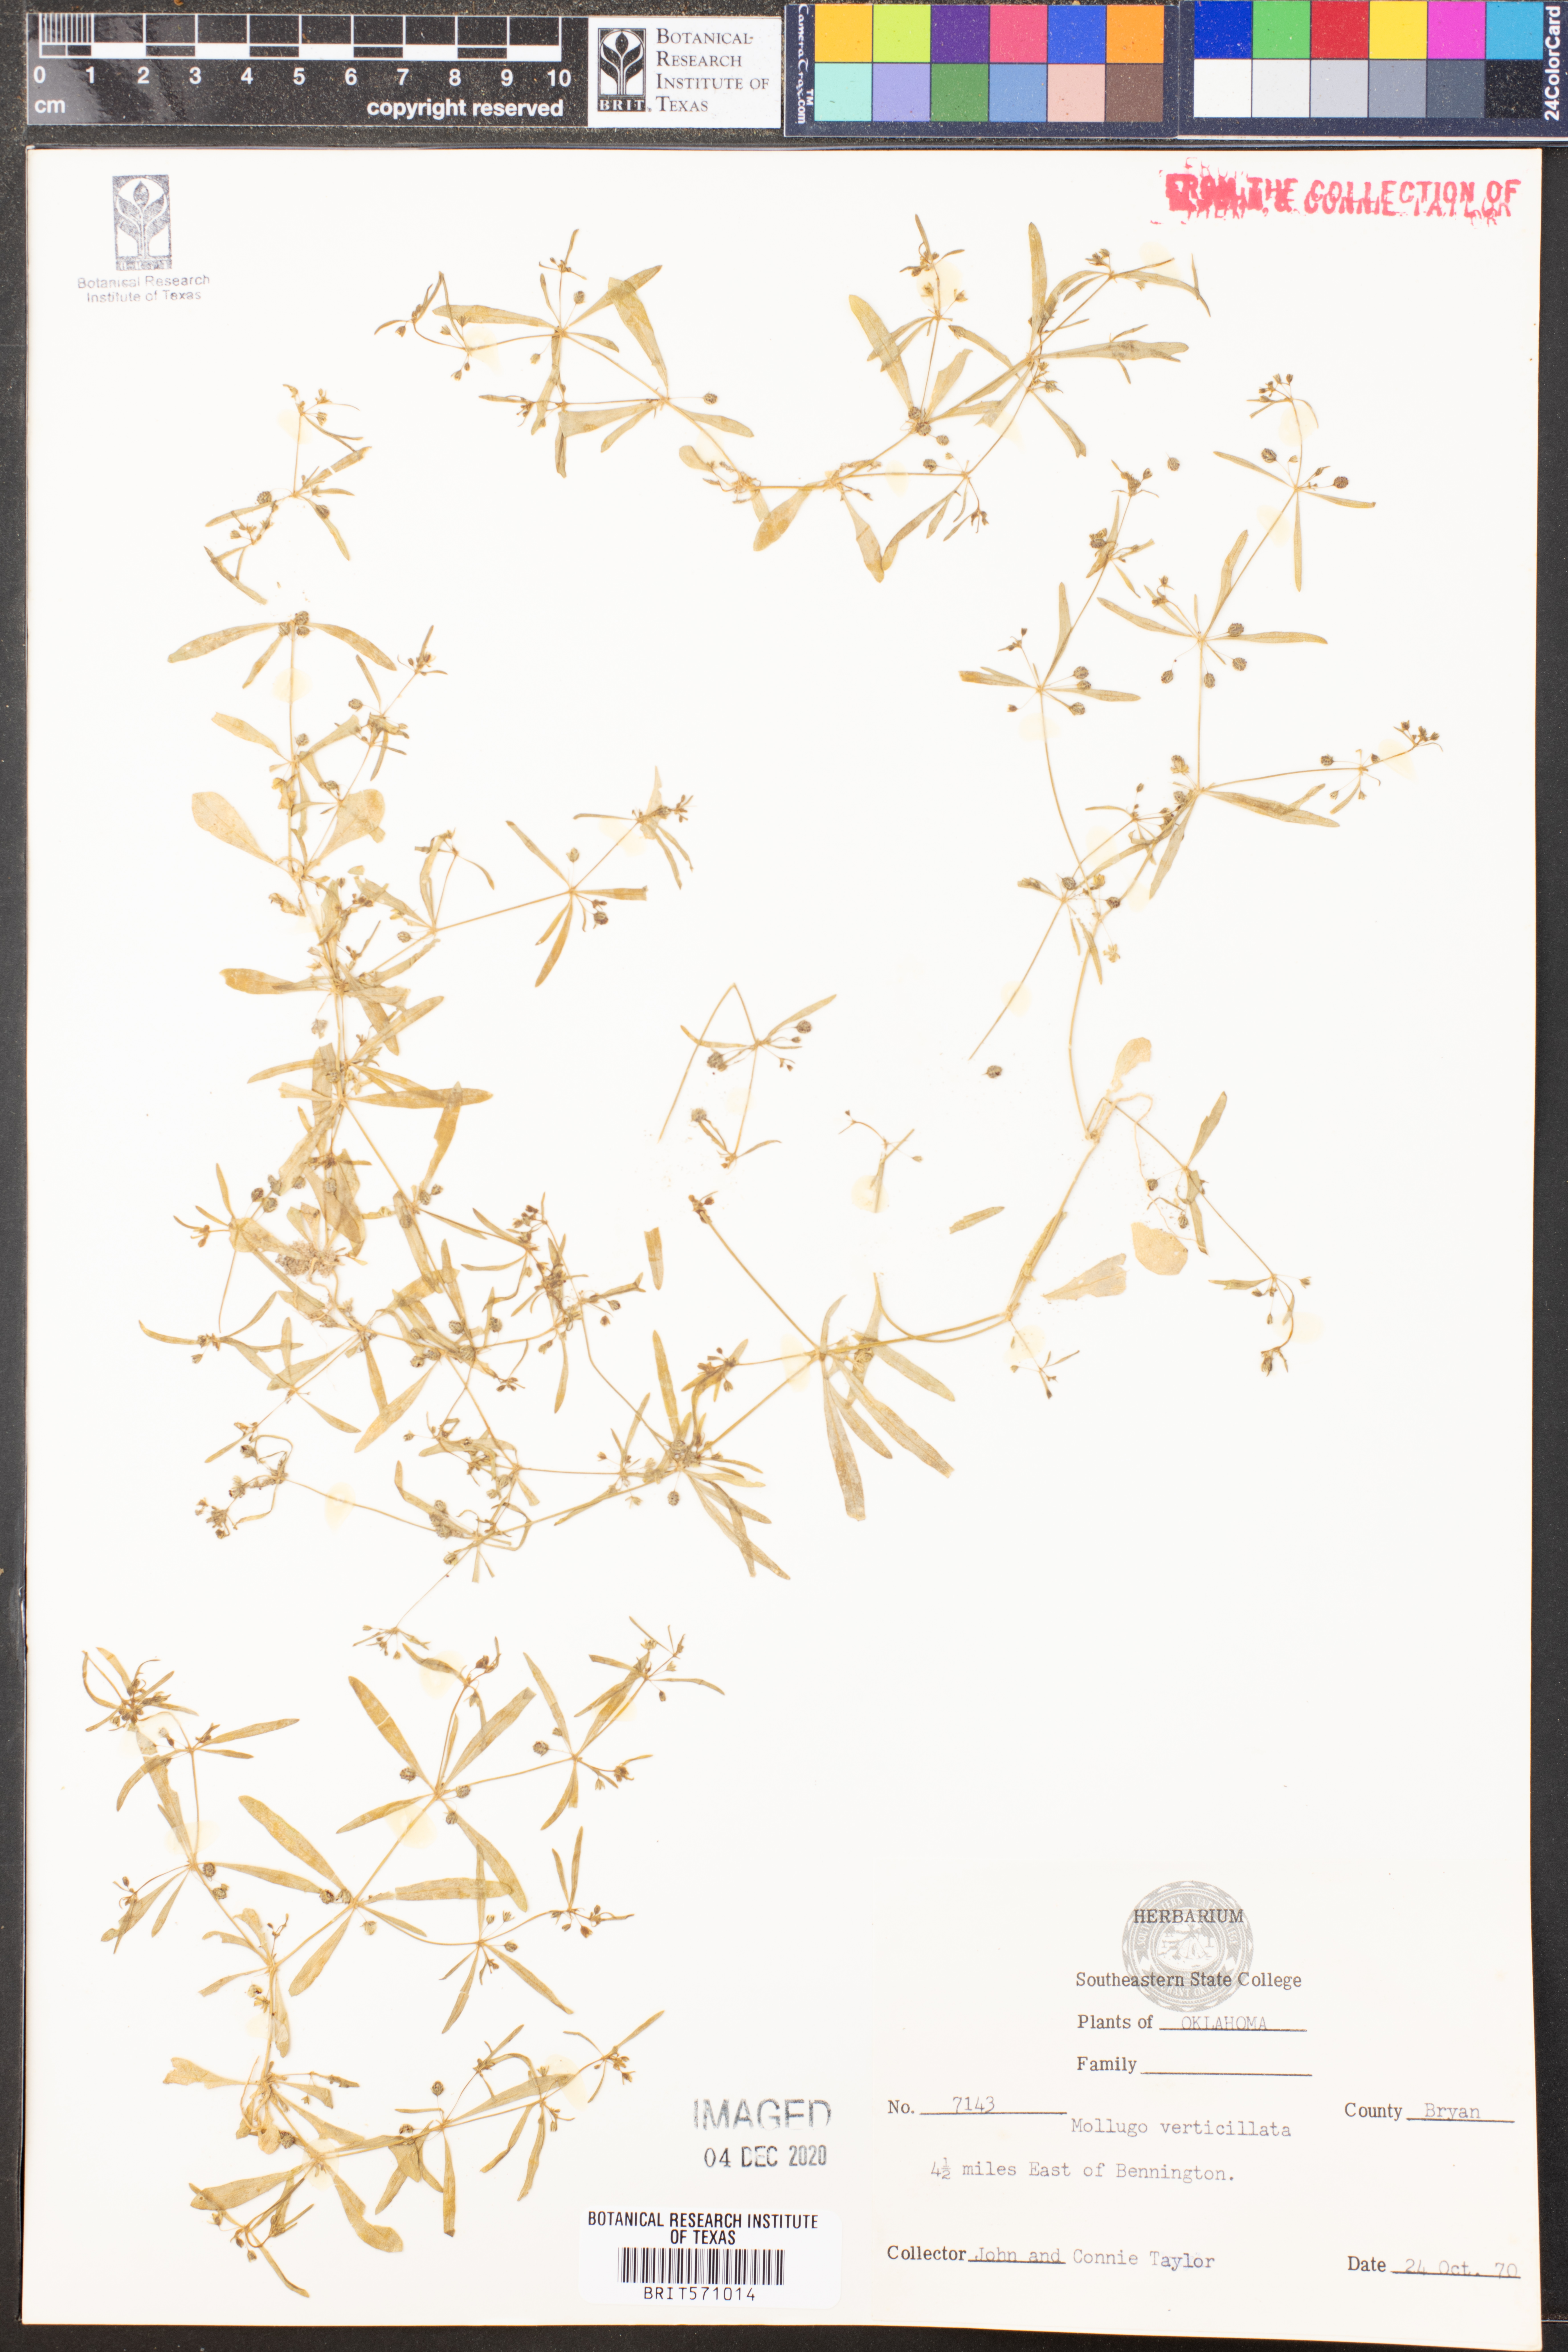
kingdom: Plantae
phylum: Tracheophyta
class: Magnoliopsida
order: Caryophyllales
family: Molluginaceae
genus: Mollugo
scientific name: Mollugo verticillata
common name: Green carpetweed
